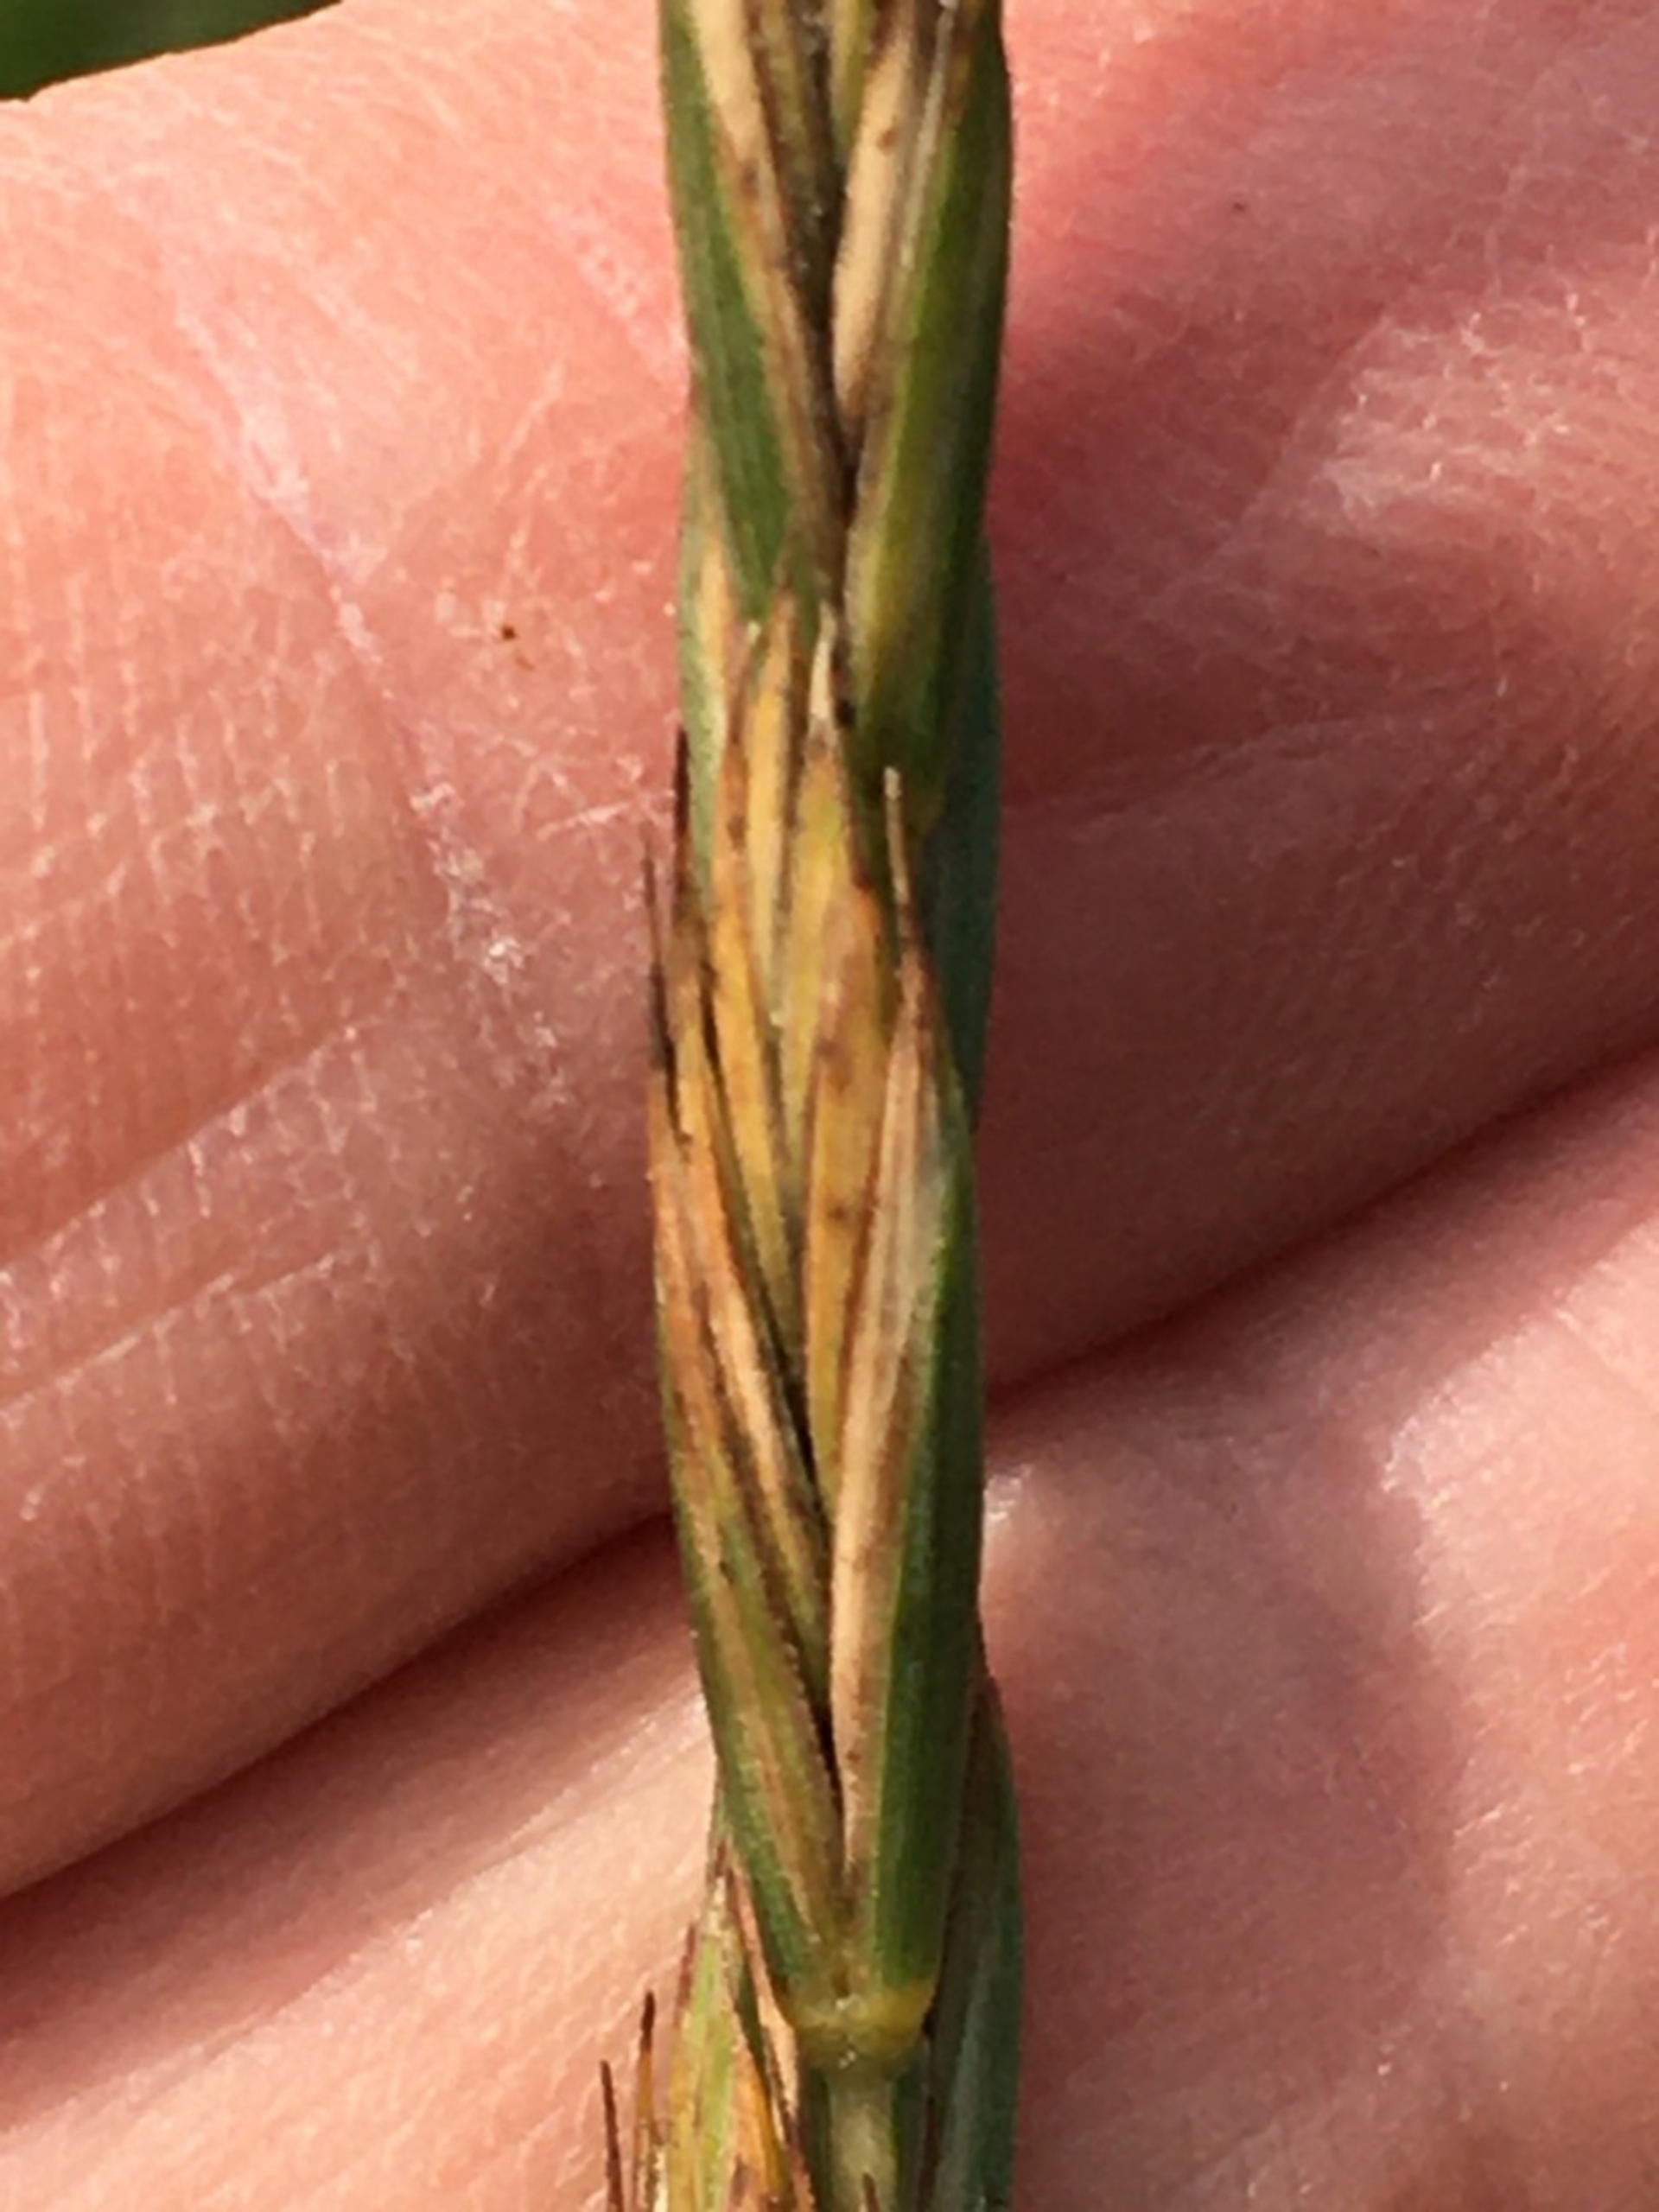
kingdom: Plantae
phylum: Tracheophyta
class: Liliopsida
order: Poales
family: Poaceae
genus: Elymus
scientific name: Elymus repens
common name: Almindelig kvik
